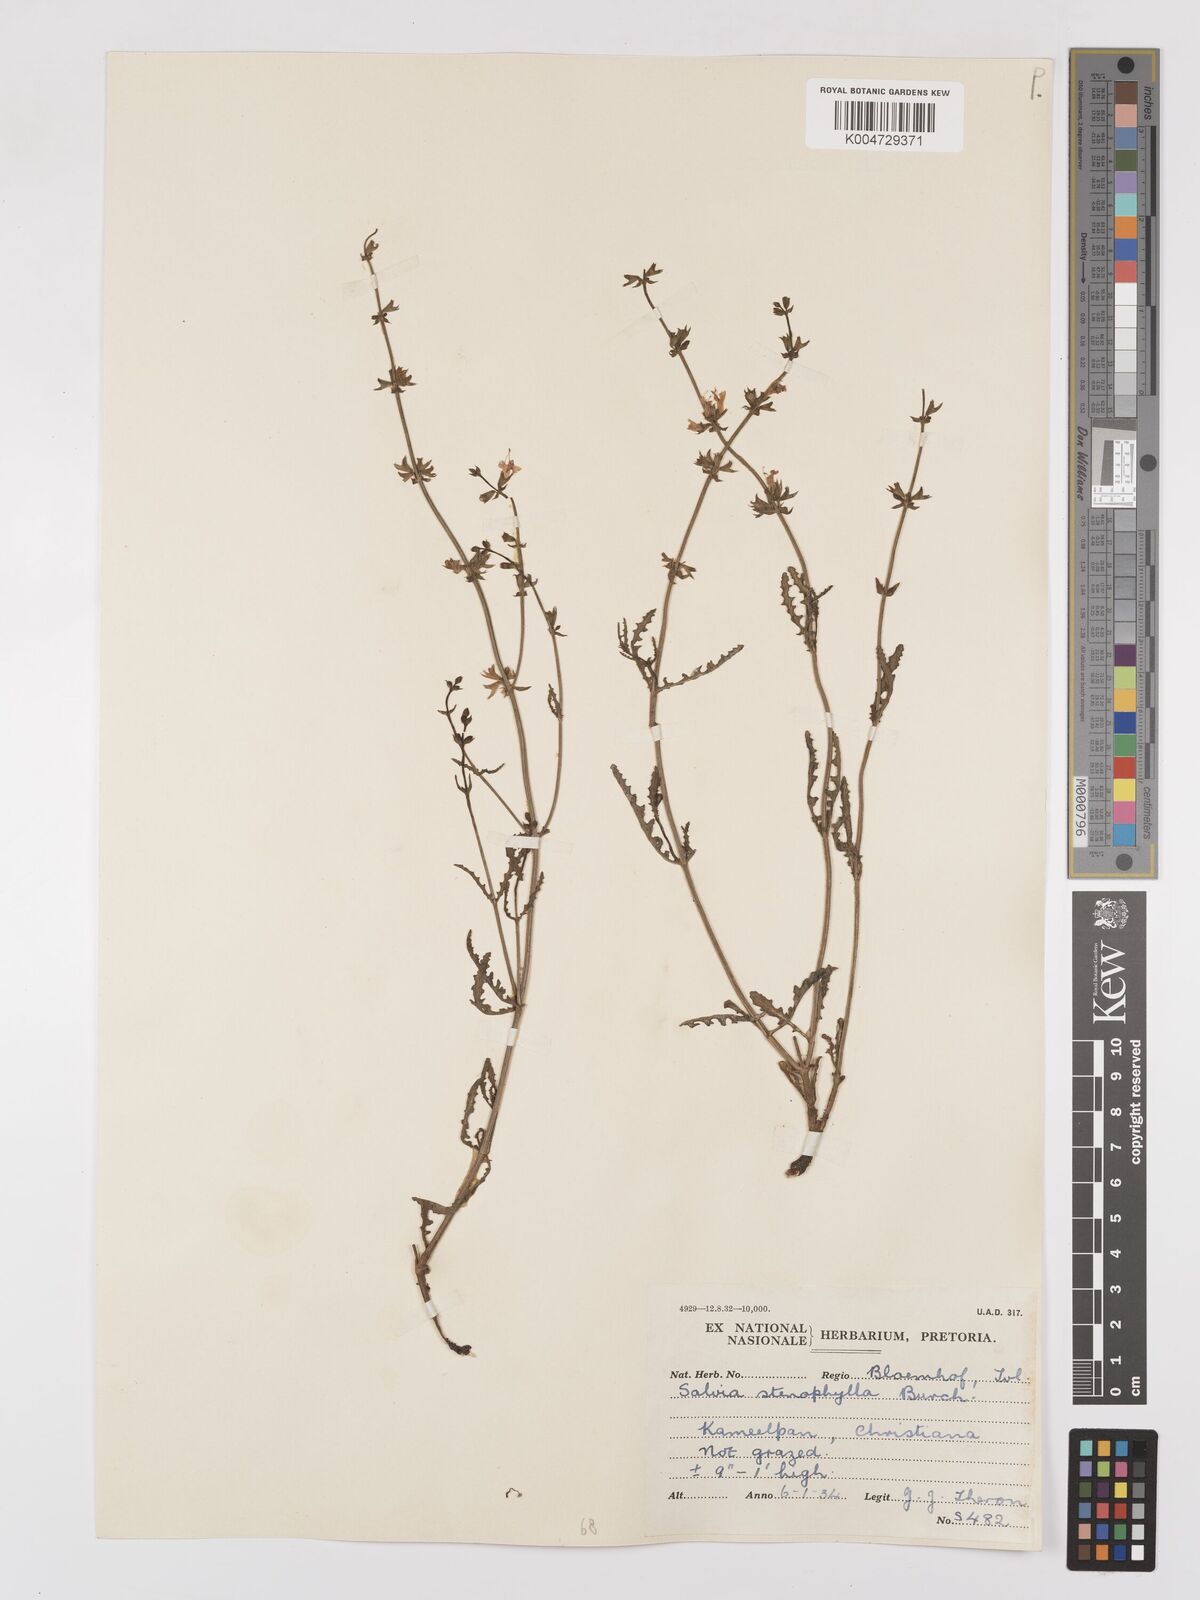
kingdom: Plantae
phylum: Tracheophyta
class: Magnoliopsida
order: Lamiales
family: Lamiaceae
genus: Salvia
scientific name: Salvia stenophylla
